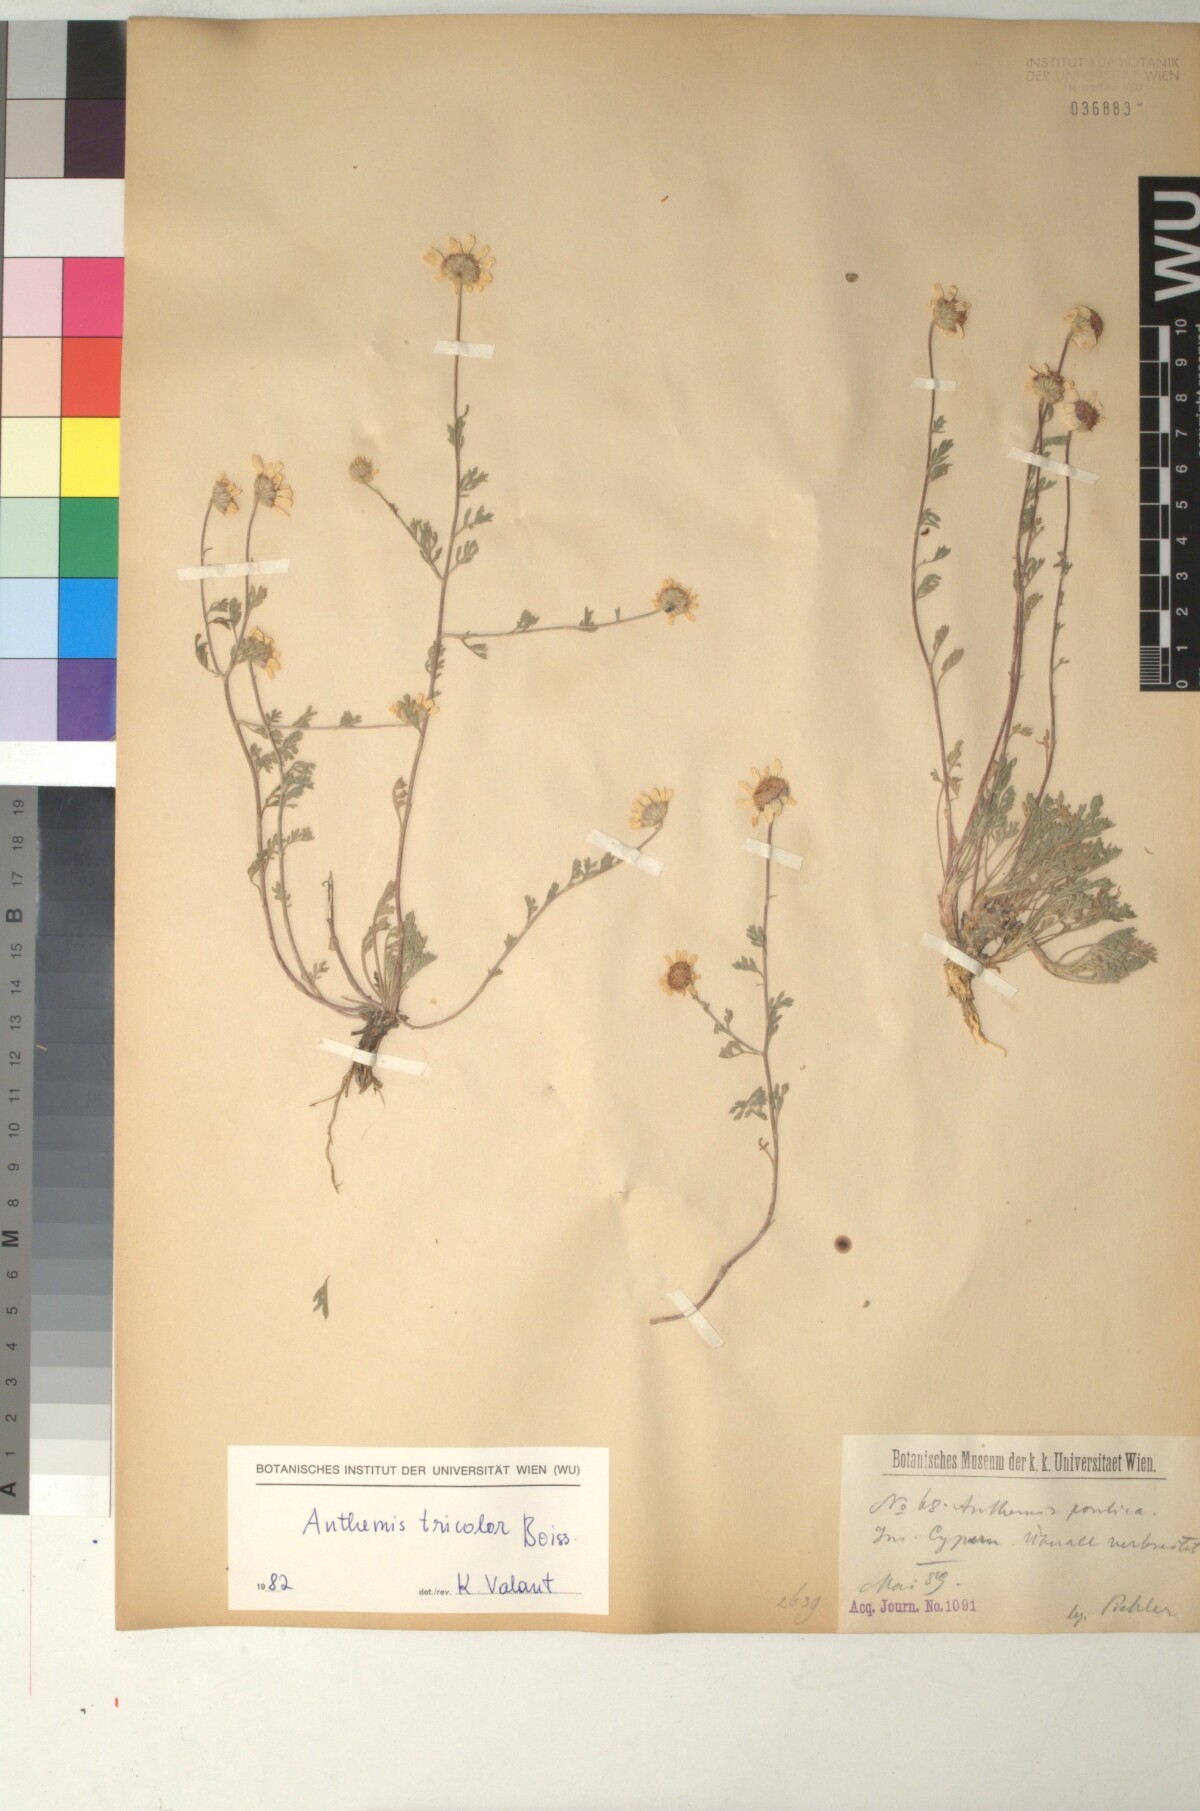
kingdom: Plantae
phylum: Tracheophyta
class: Magnoliopsida
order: Asterales
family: Asteraceae
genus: Anthemis
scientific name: Anthemis tricolor
